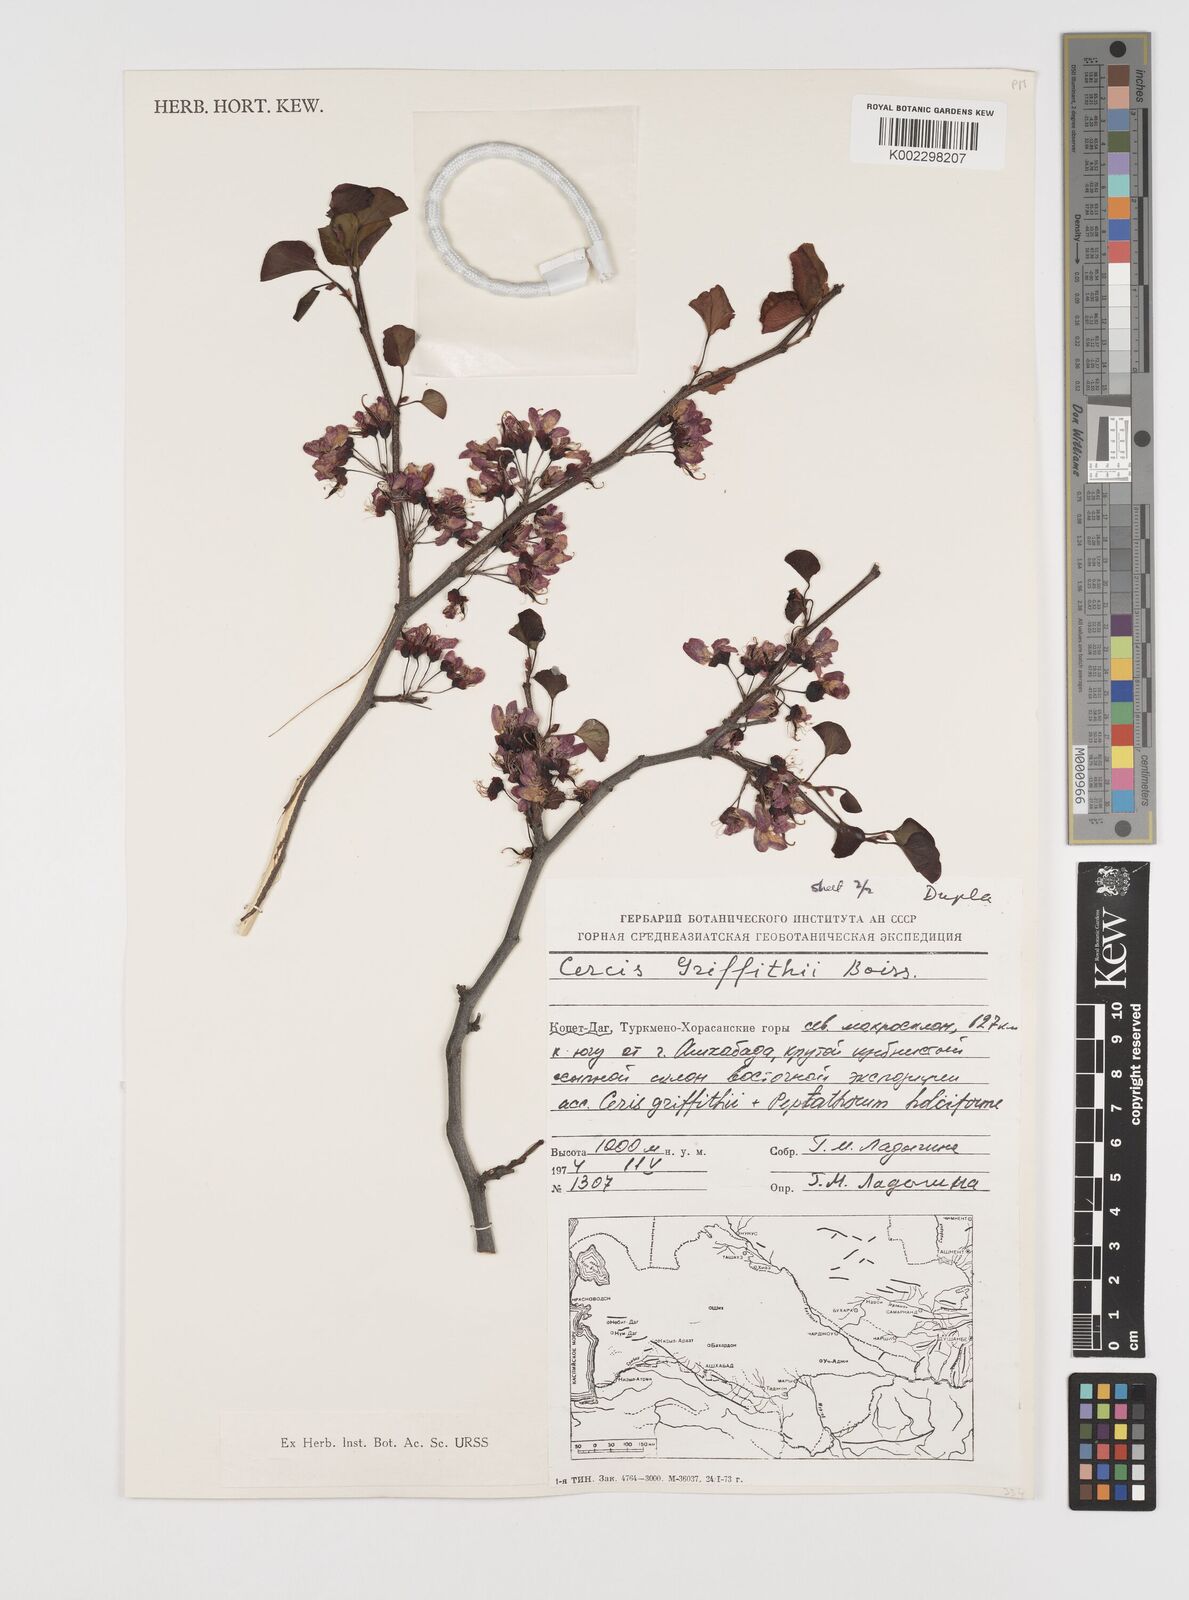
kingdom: Plantae
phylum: Tracheophyta
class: Magnoliopsida
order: Fabales
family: Fabaceae
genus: Cercis
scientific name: Cercis griffithii
